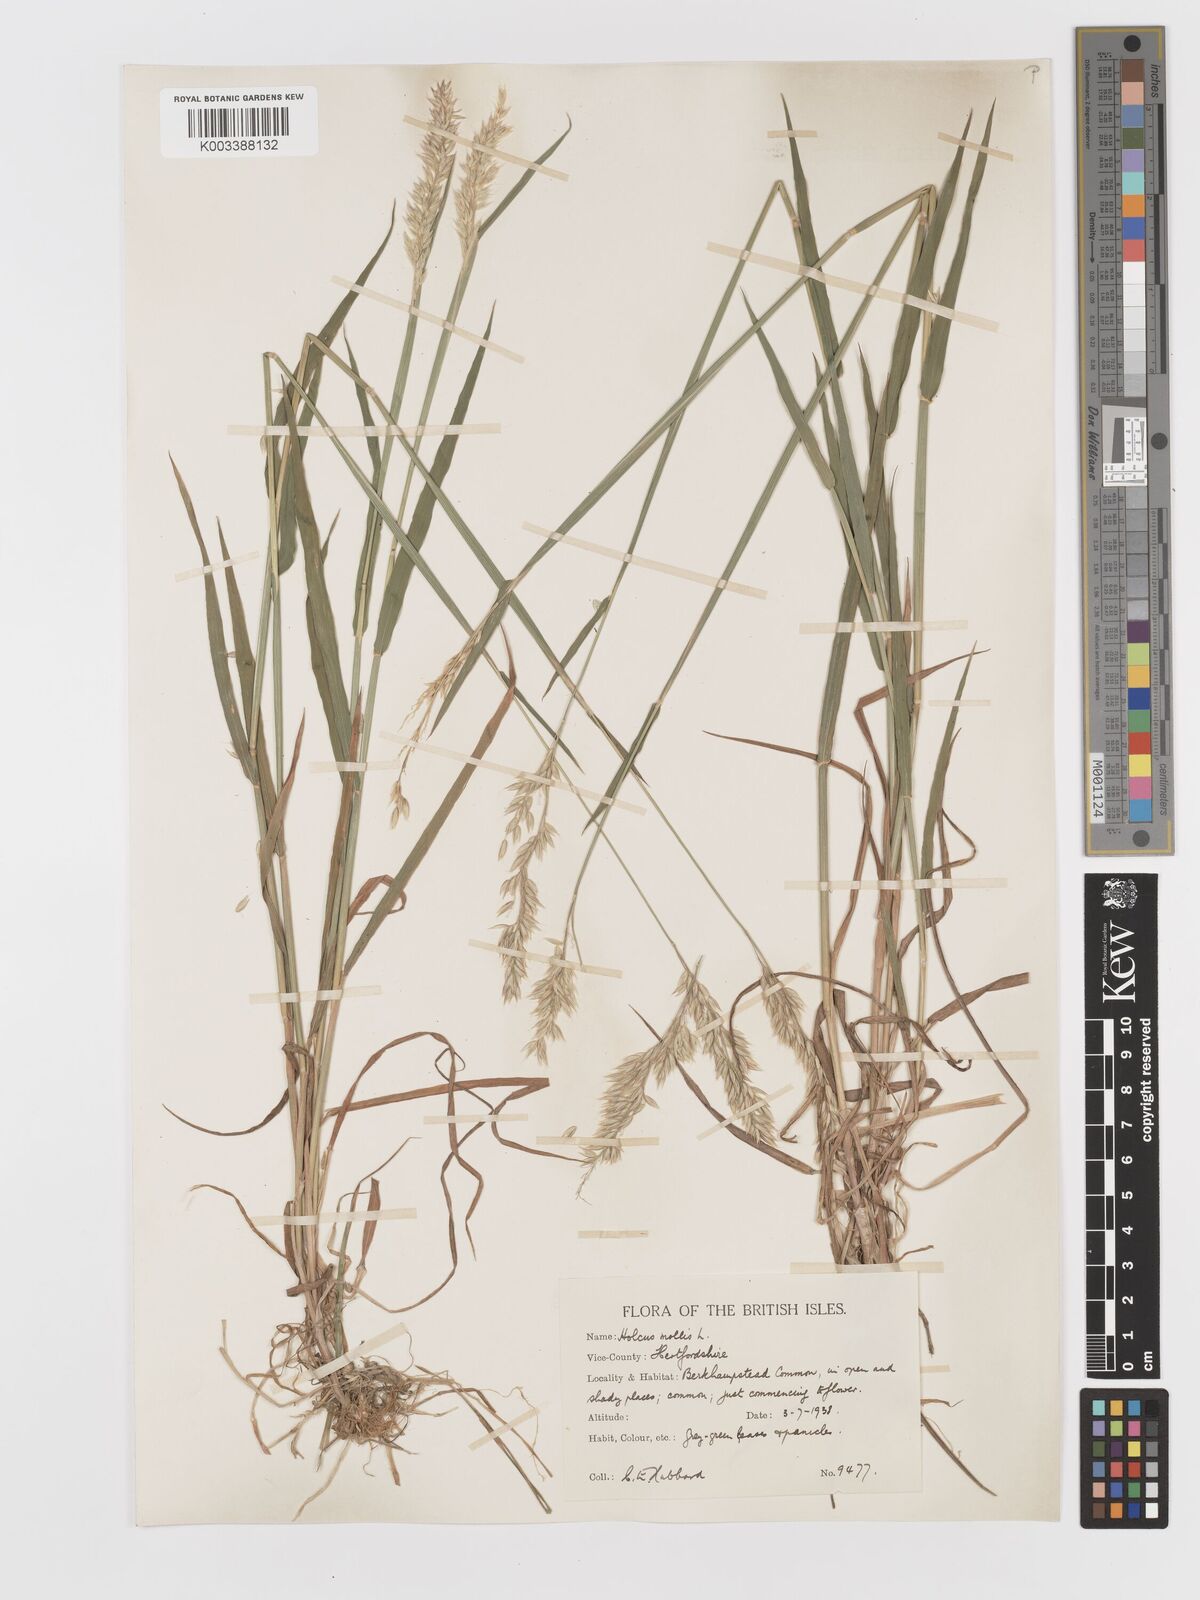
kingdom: Plantae
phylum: Tracheophyta
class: Liliopsida
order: Poales
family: Poaceae
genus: Holcus
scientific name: Holcus mollis
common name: Creeping velvetgrass
